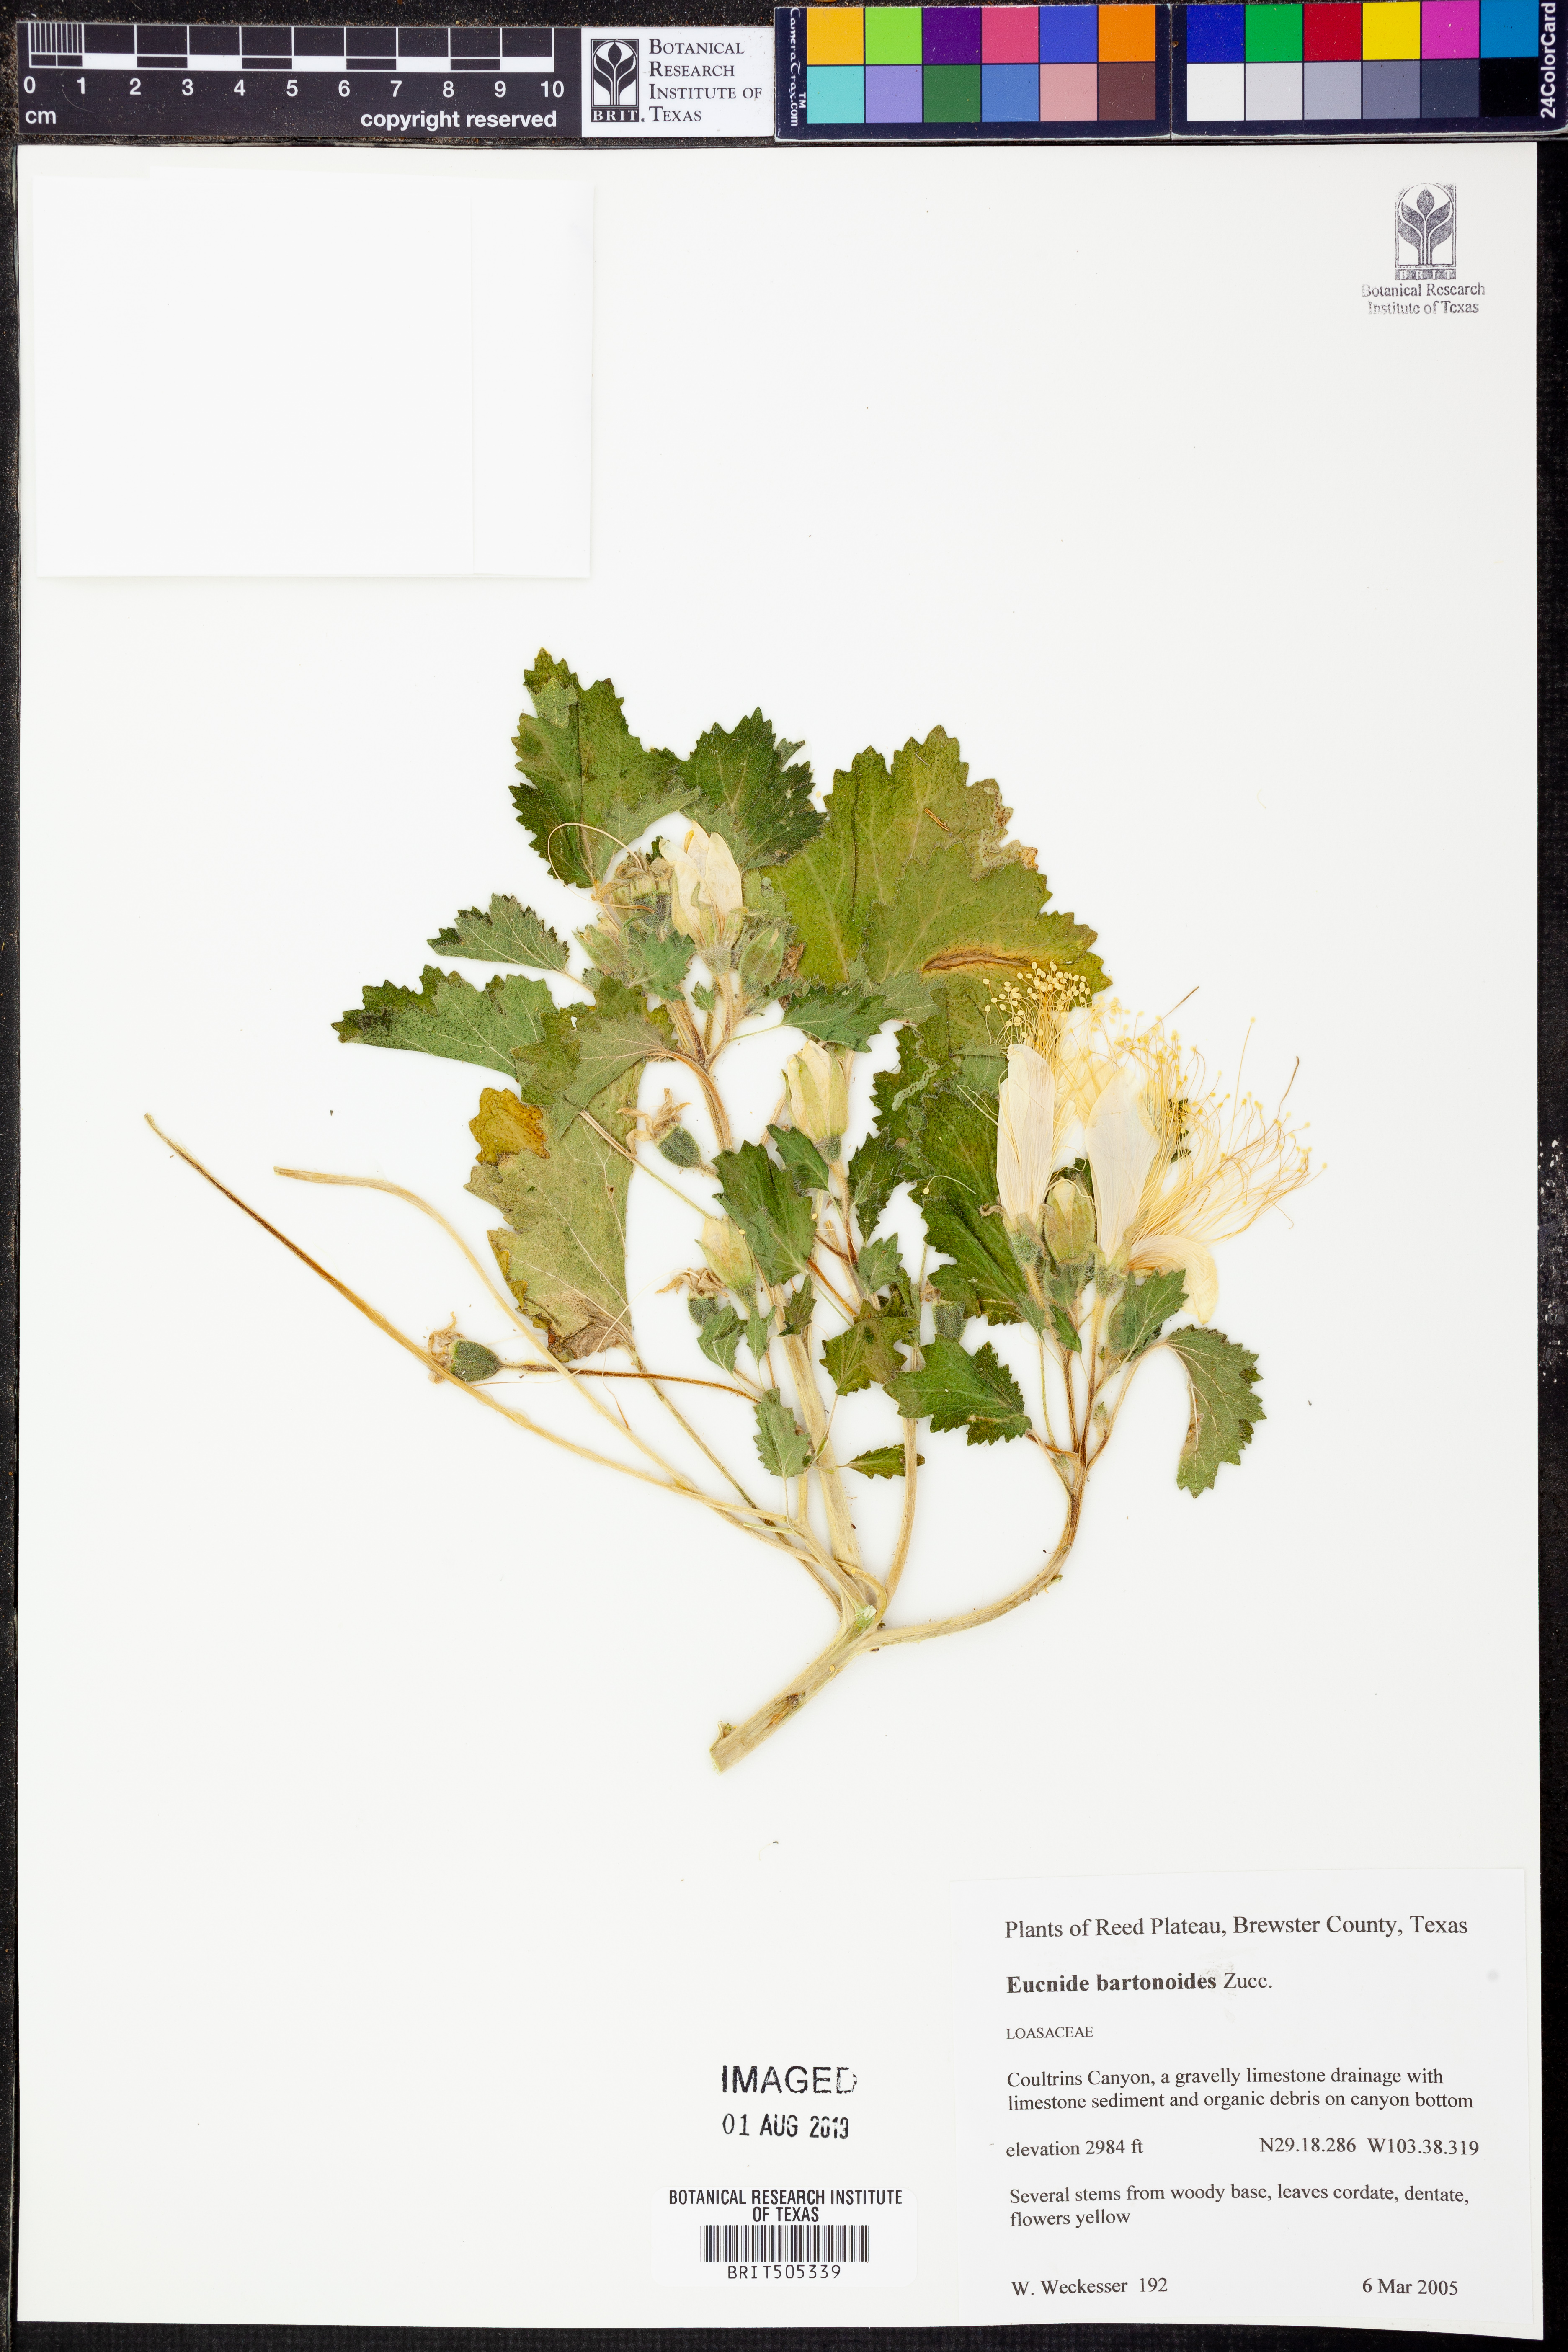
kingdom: Plantae
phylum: Tracheophyta
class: Magnoliopsida
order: Cornales
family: Loasaceae
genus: Eucnide
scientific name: Eucnide bartonioides
